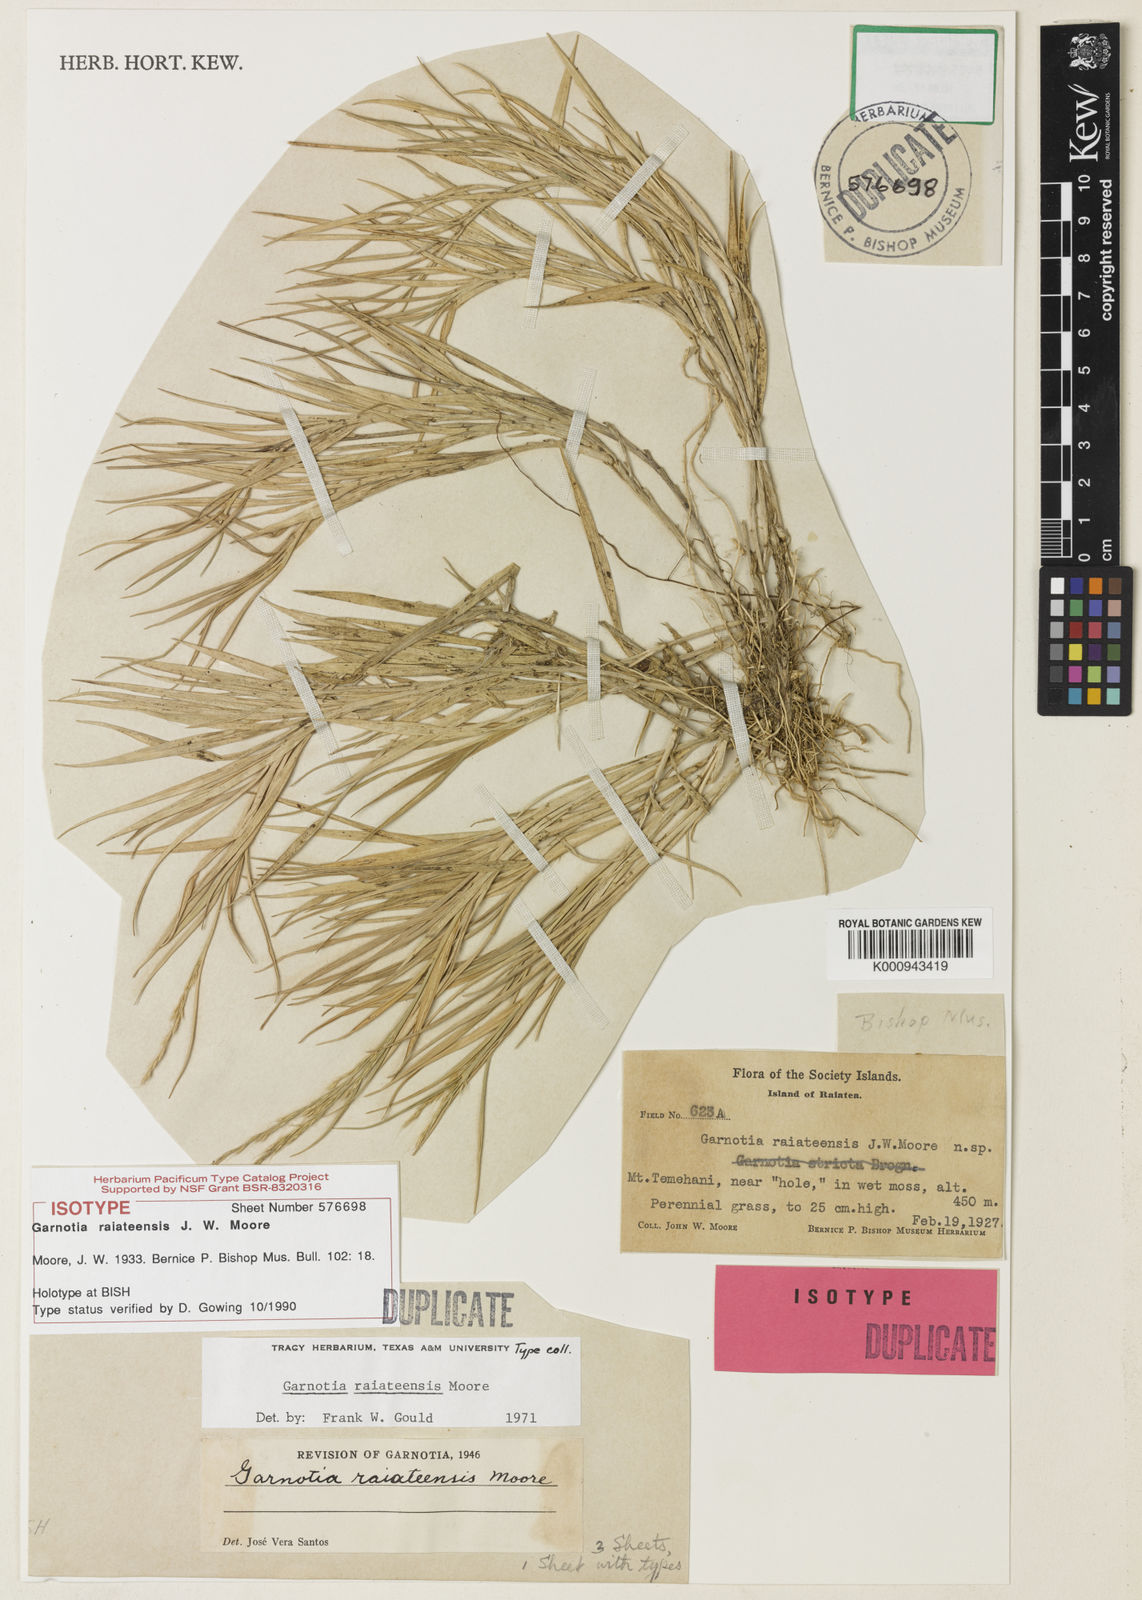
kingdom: Plantae
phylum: Tracheophyta
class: Liliopsida
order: Poales
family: Poaceae
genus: Garnotia
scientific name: Garnotia raiateensis
